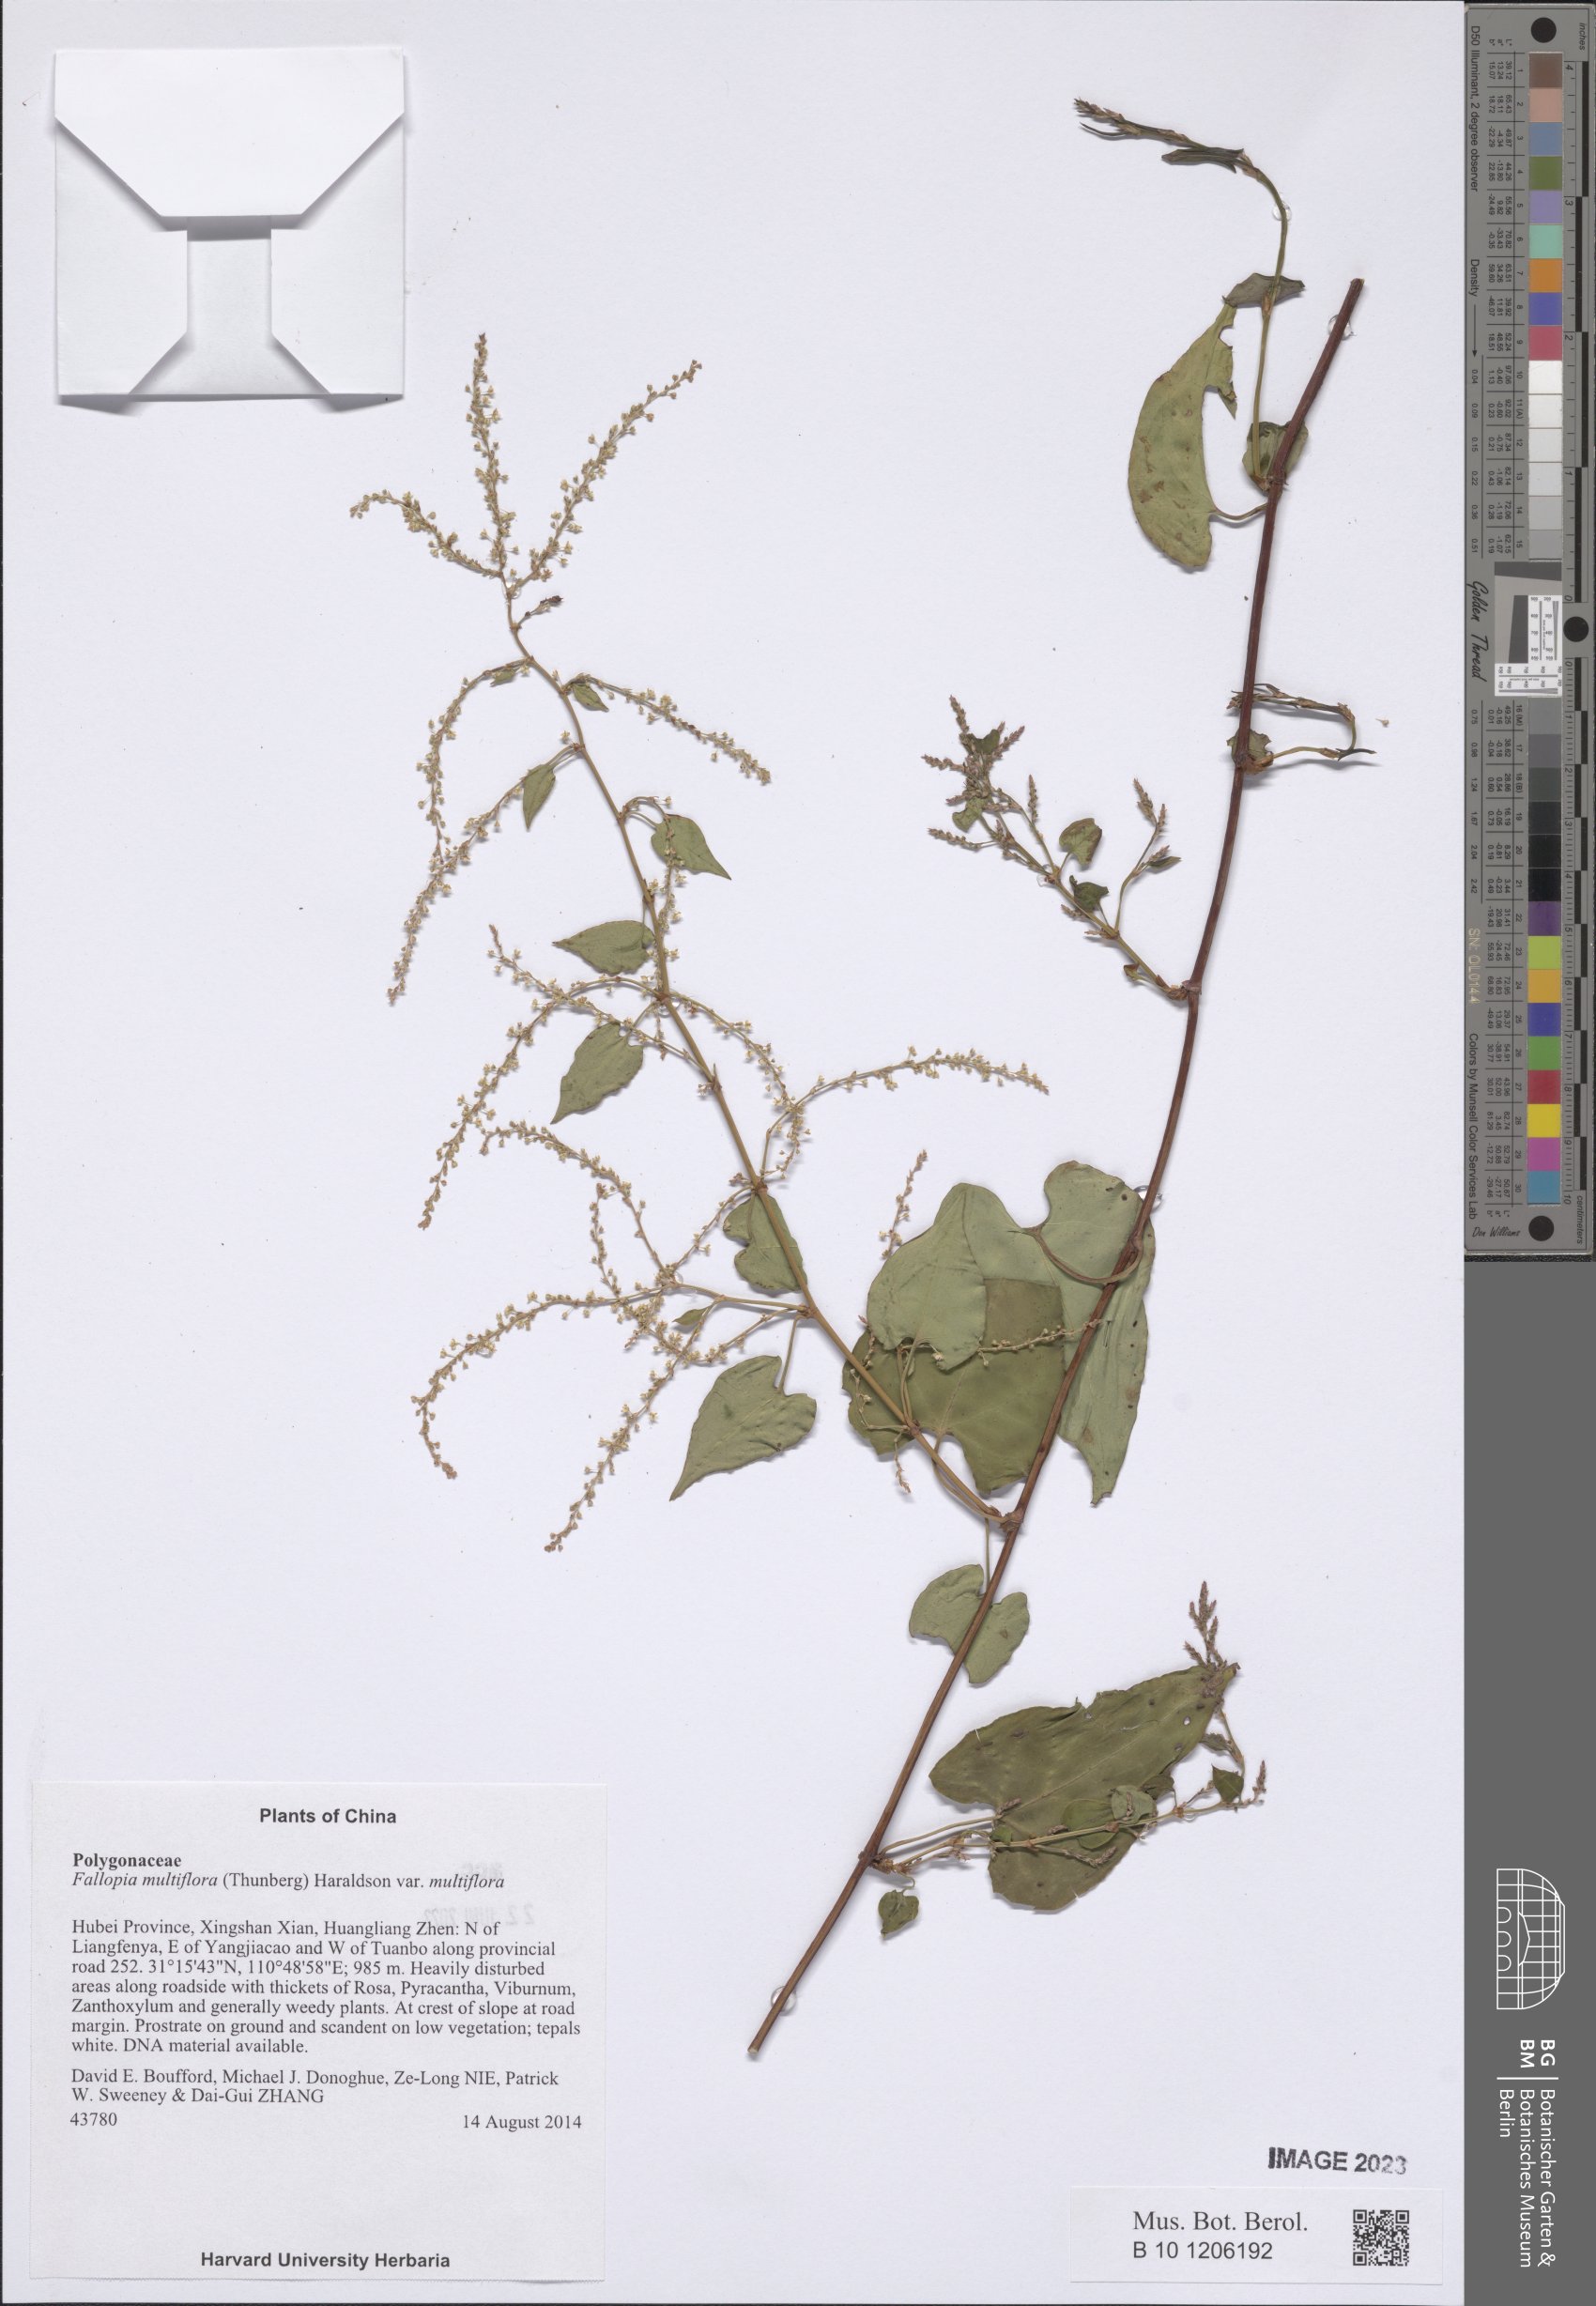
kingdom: Plantae
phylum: Tracheophyta
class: Magnoliopsida
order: Caryophyllales
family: Polygonaceae
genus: Reynoutria
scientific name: Reynoutria multiflora
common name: Chinese fleeceflower
